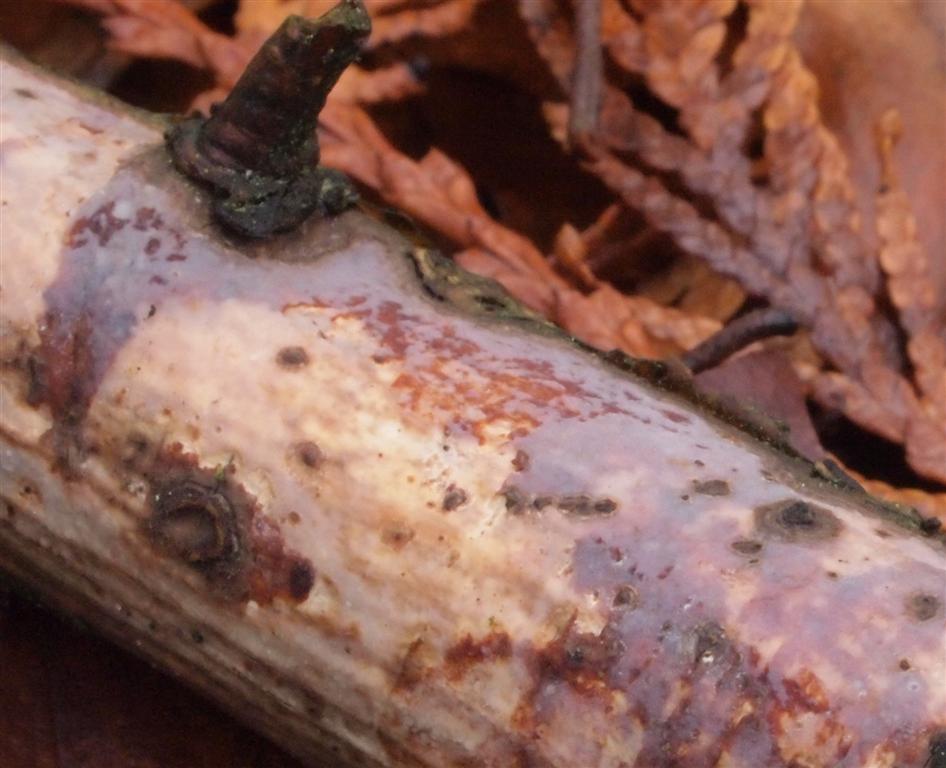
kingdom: Fungi
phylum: Basidiomycota
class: Agaricomycetes
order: Corticiales
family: Vuilleminiaceae
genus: Vuilleminia
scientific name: Vuilleminia coryli
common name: hassel-barksprænger
